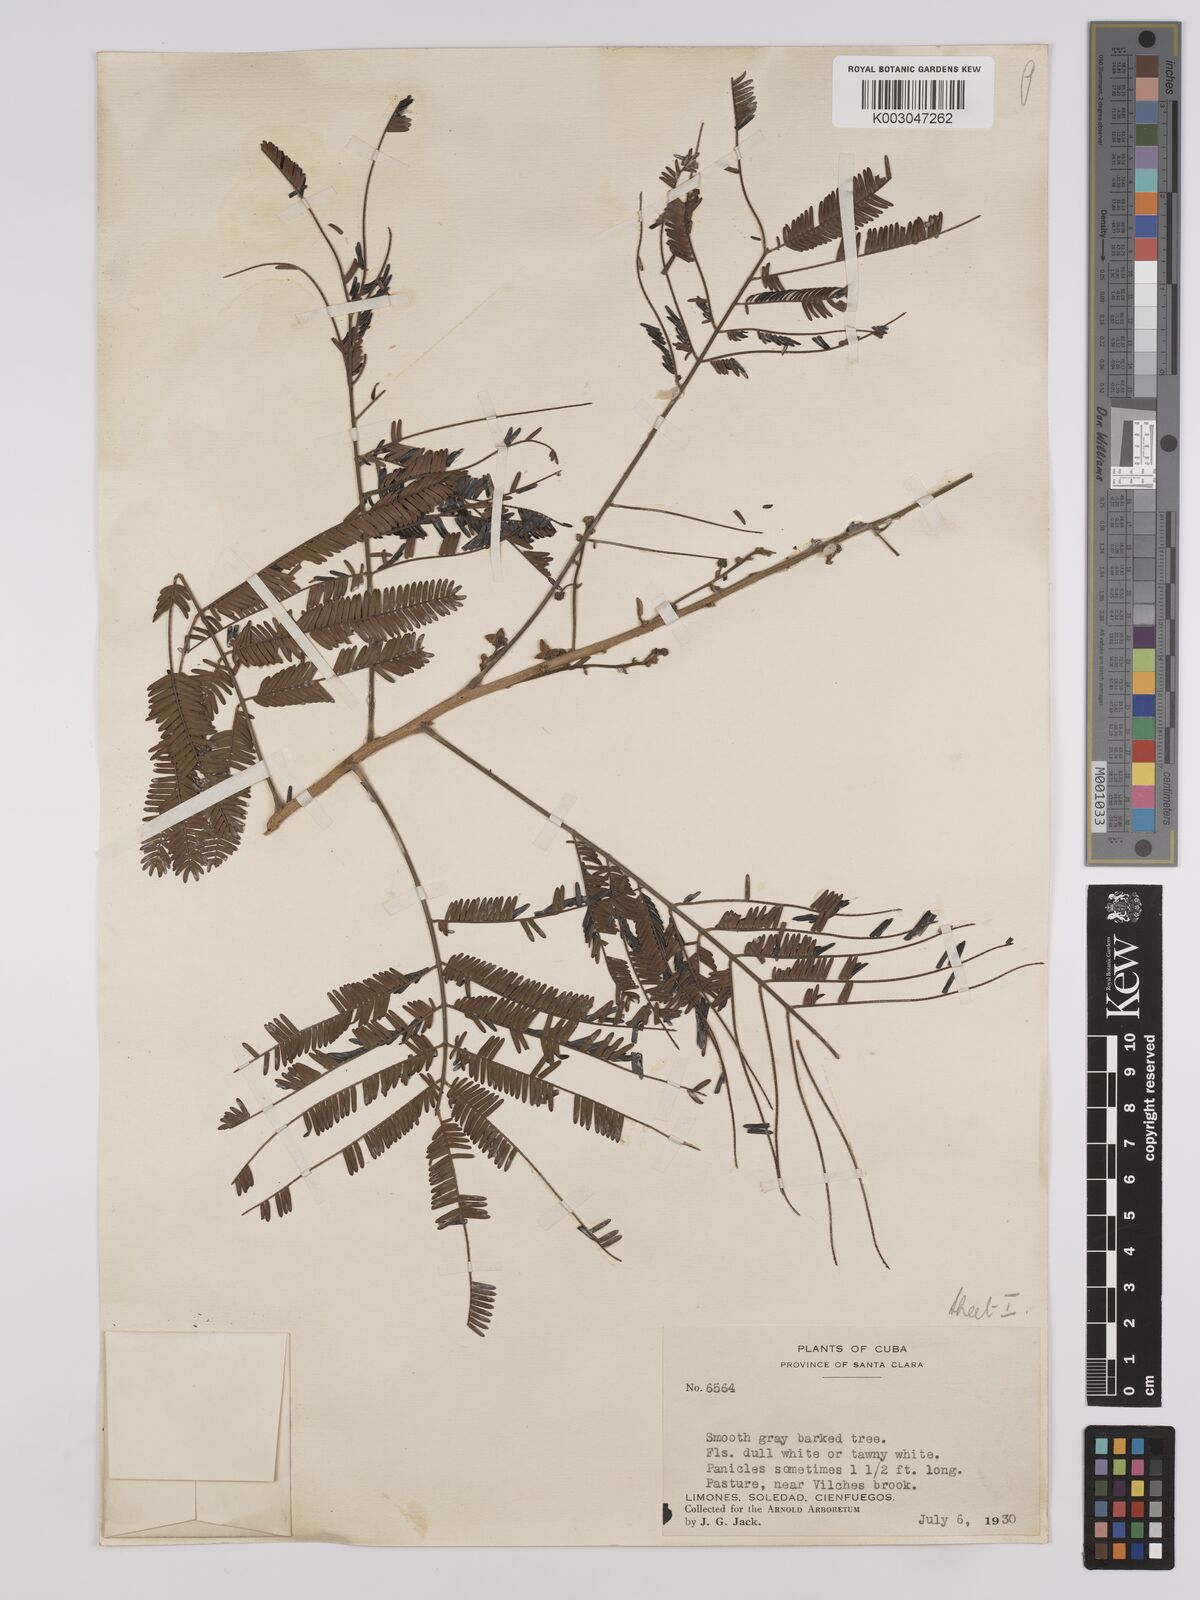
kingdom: Plantae
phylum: Tracheophyta
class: Magnoliopsida
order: Fabales
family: Fabaceae
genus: Albizia
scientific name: Albizia
